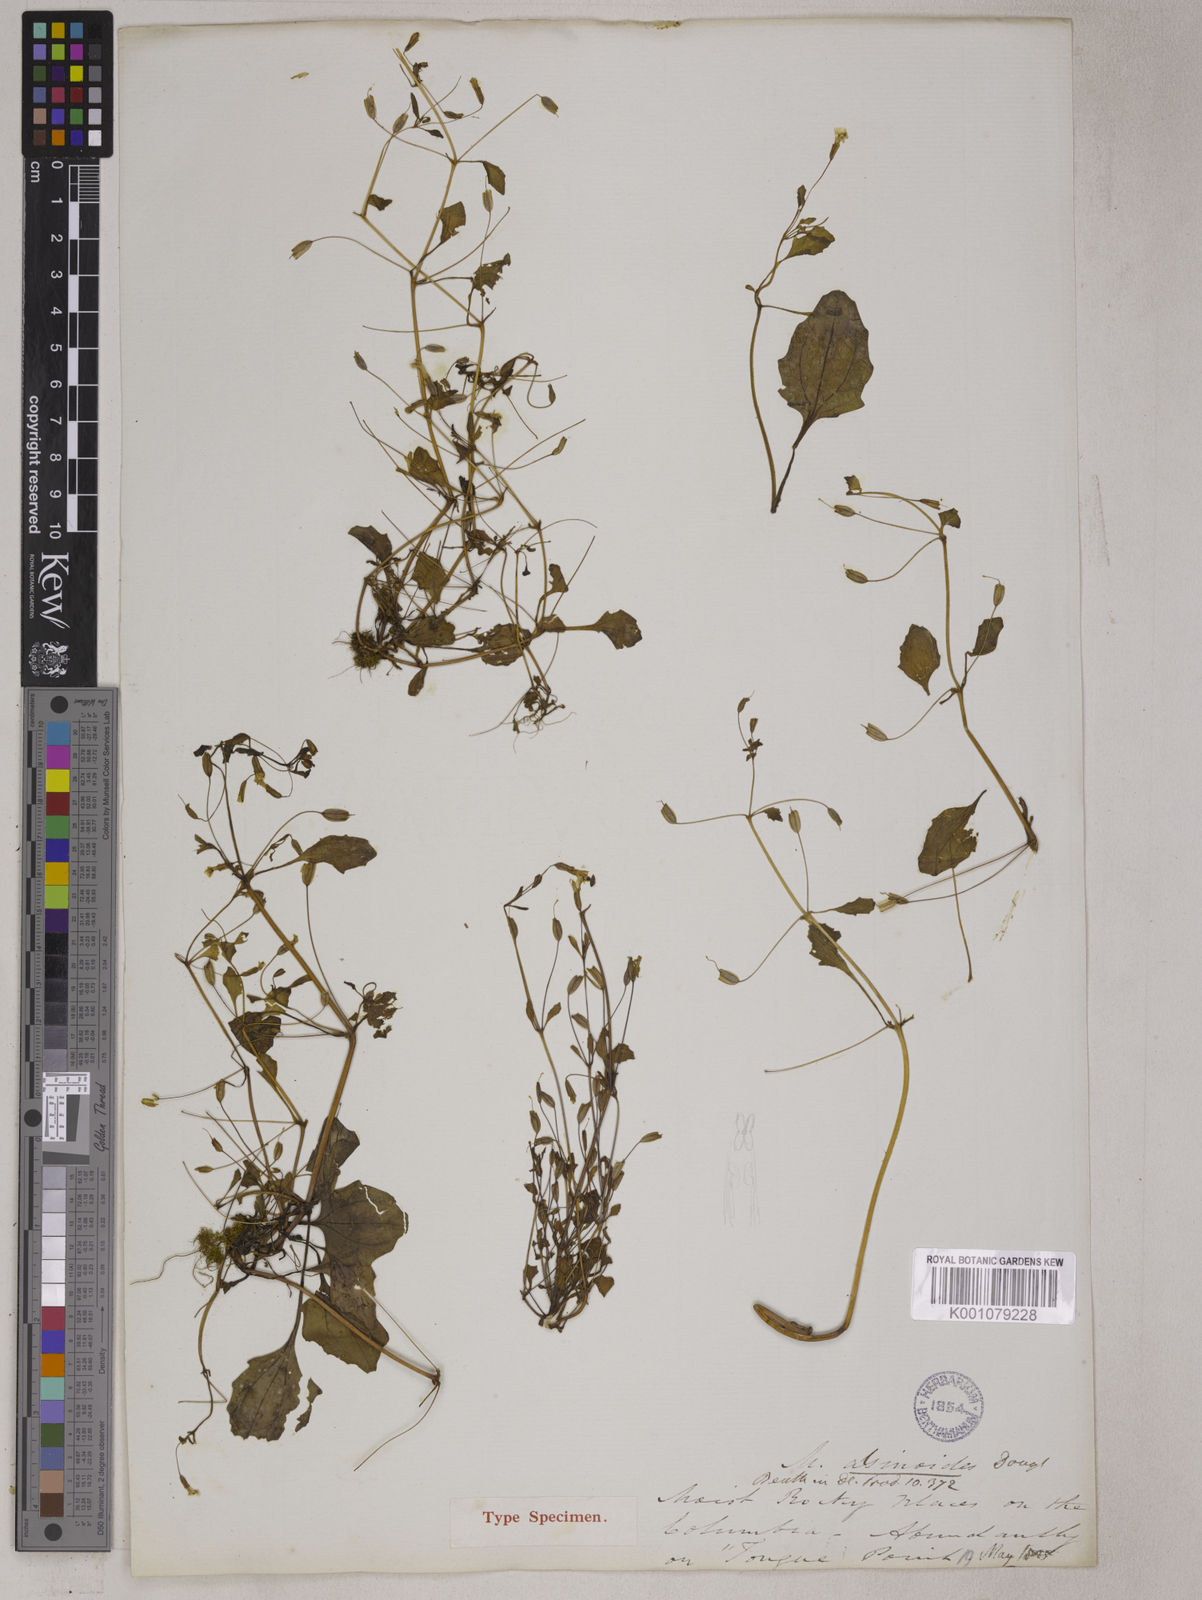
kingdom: Plantae
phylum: Tracheophyta
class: Magnoliopsida
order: Lamiales
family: Phrymaceae
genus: Mimulus
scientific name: Mimulus
